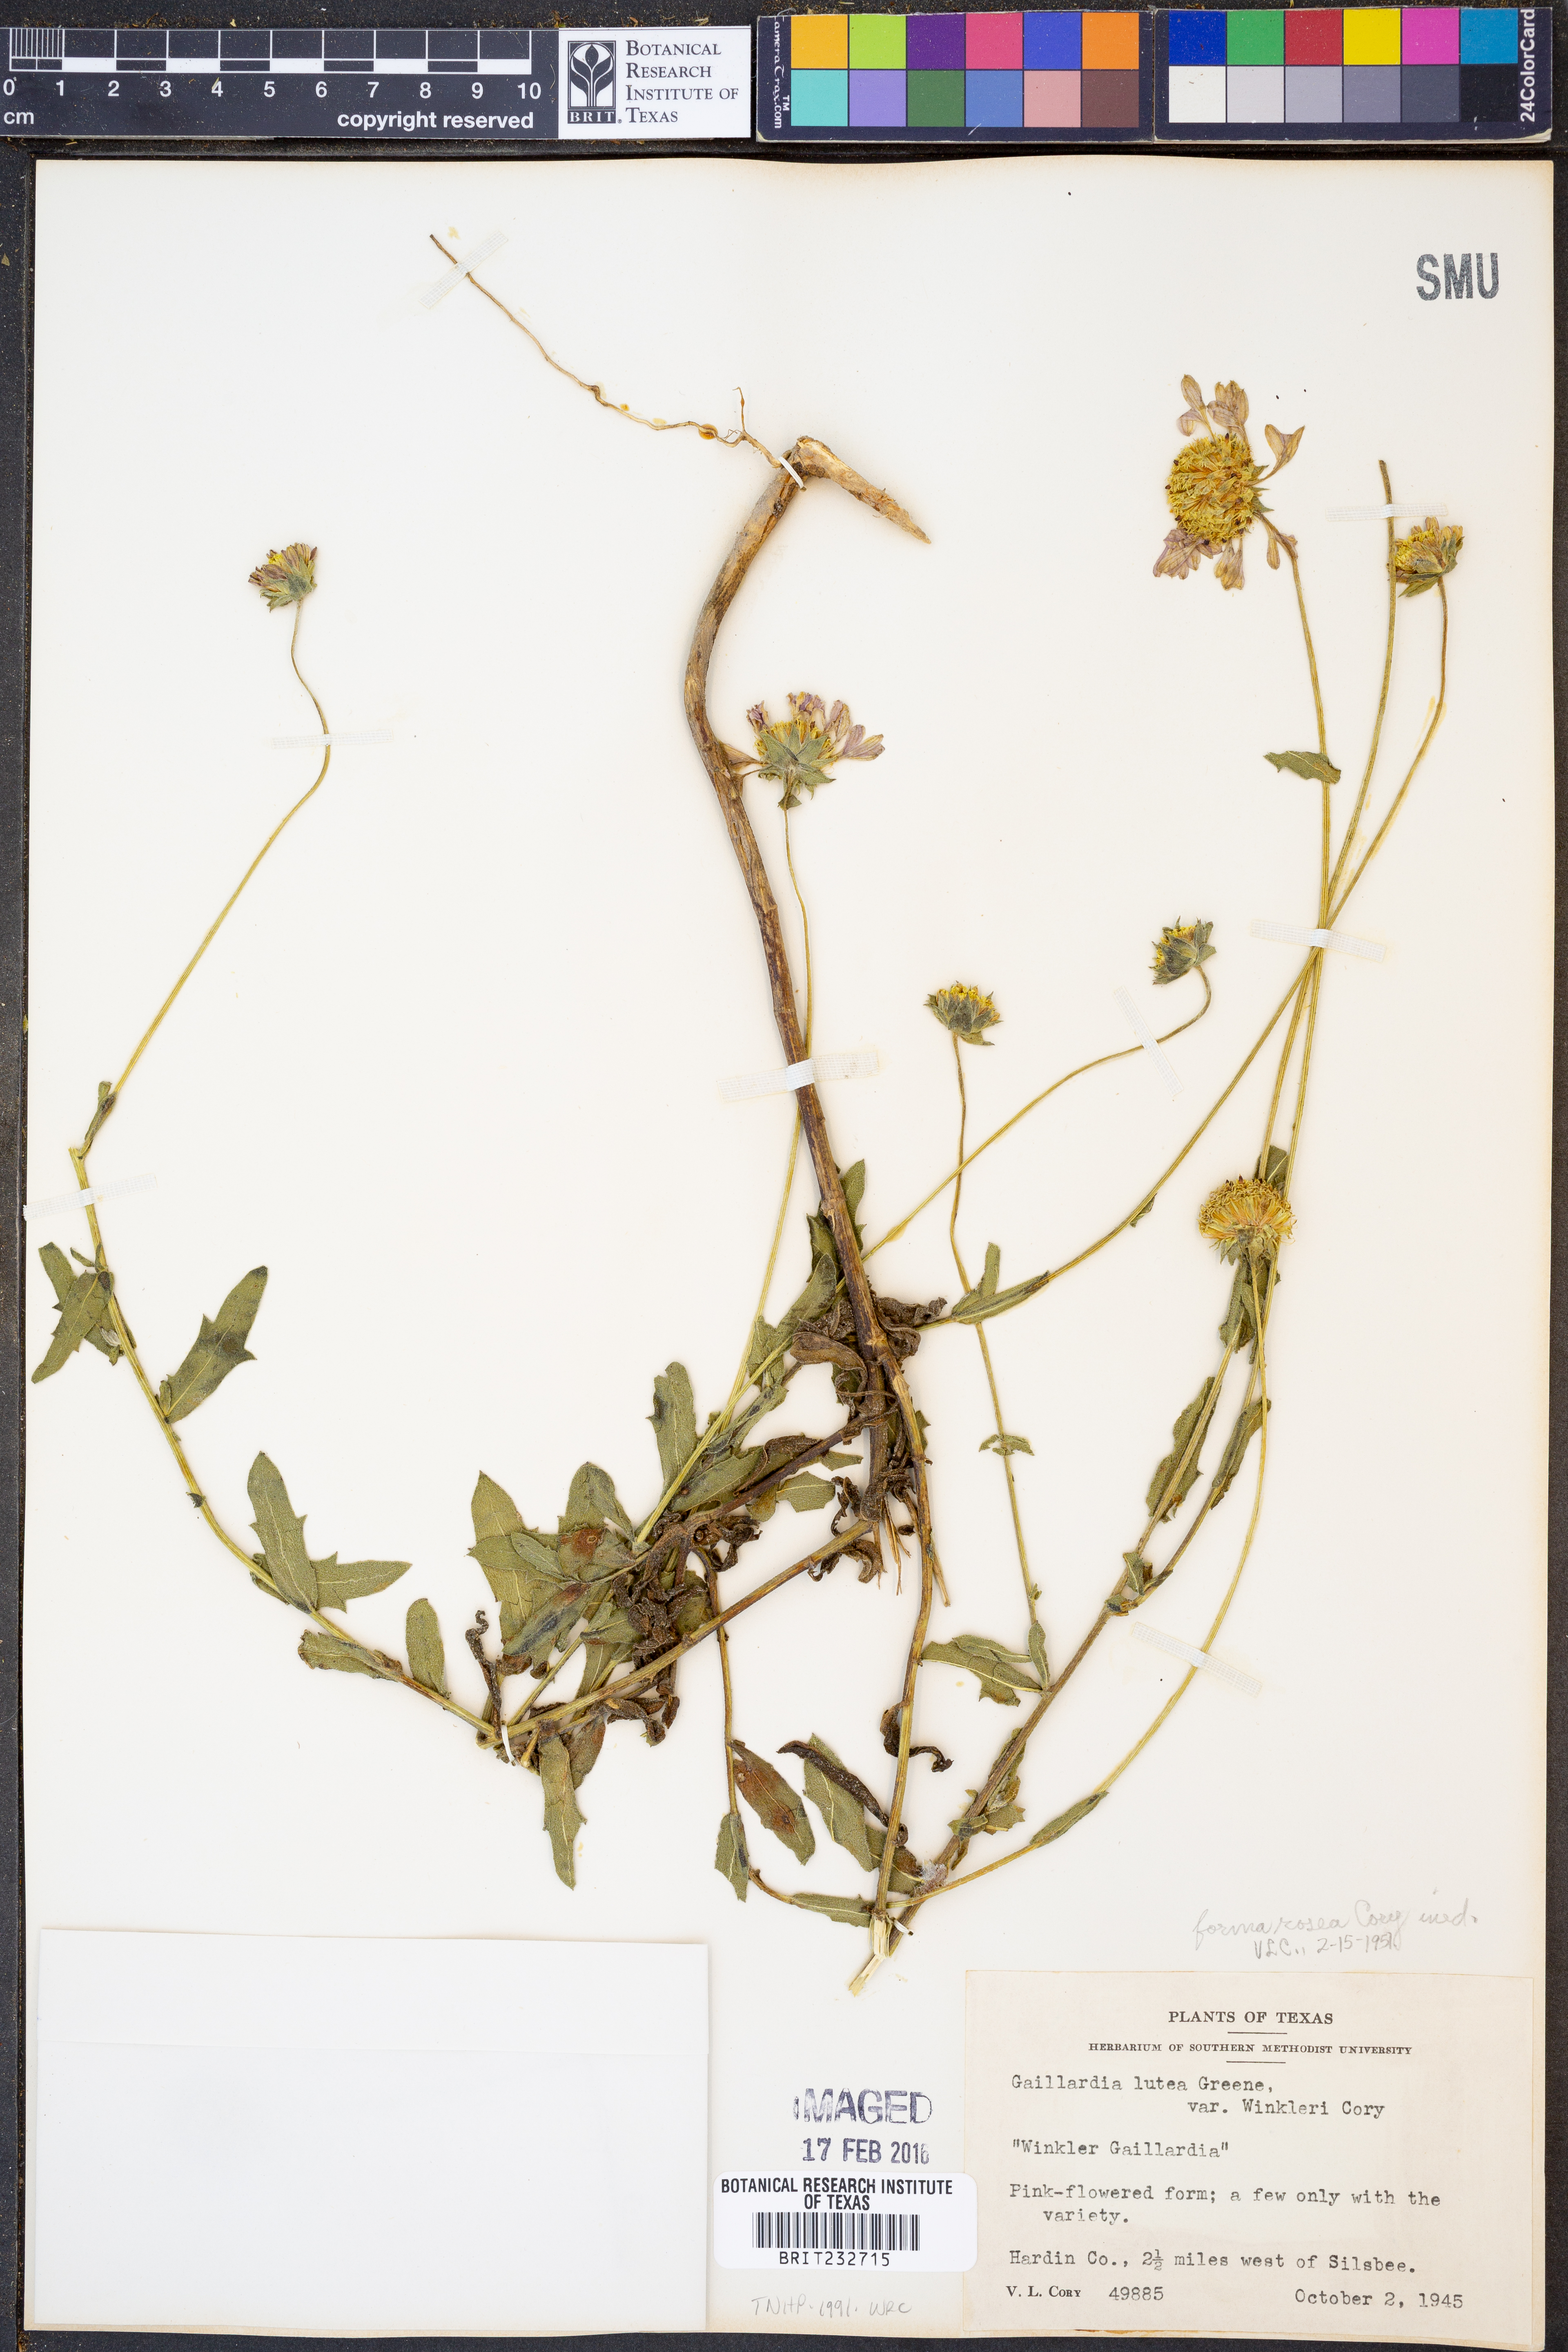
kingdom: Plantae
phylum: Tracheophyta
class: Magnoliopsida
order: Asterales
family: Asteraceae
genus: Gaillardia
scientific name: Gaillardia
